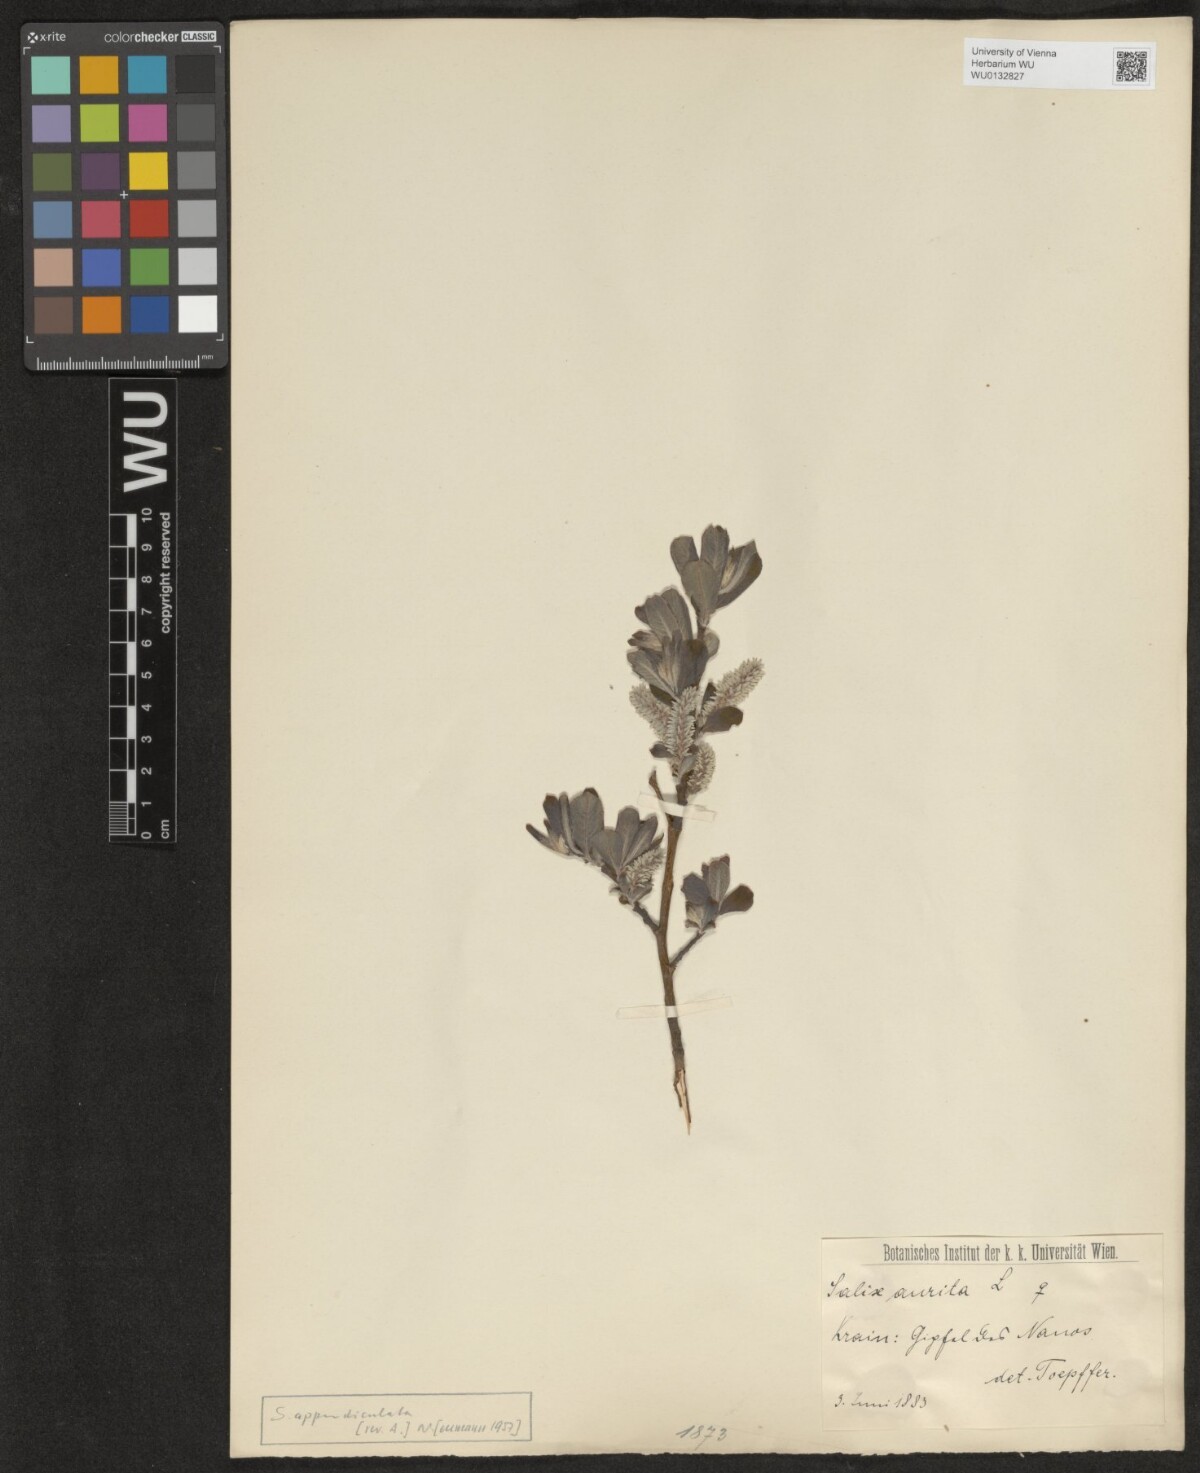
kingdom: Plantae
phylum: Tracheophyta
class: Magnoliopsida
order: Malpighiales
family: Salicaceae
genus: Salix
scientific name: Salix appendiculata
